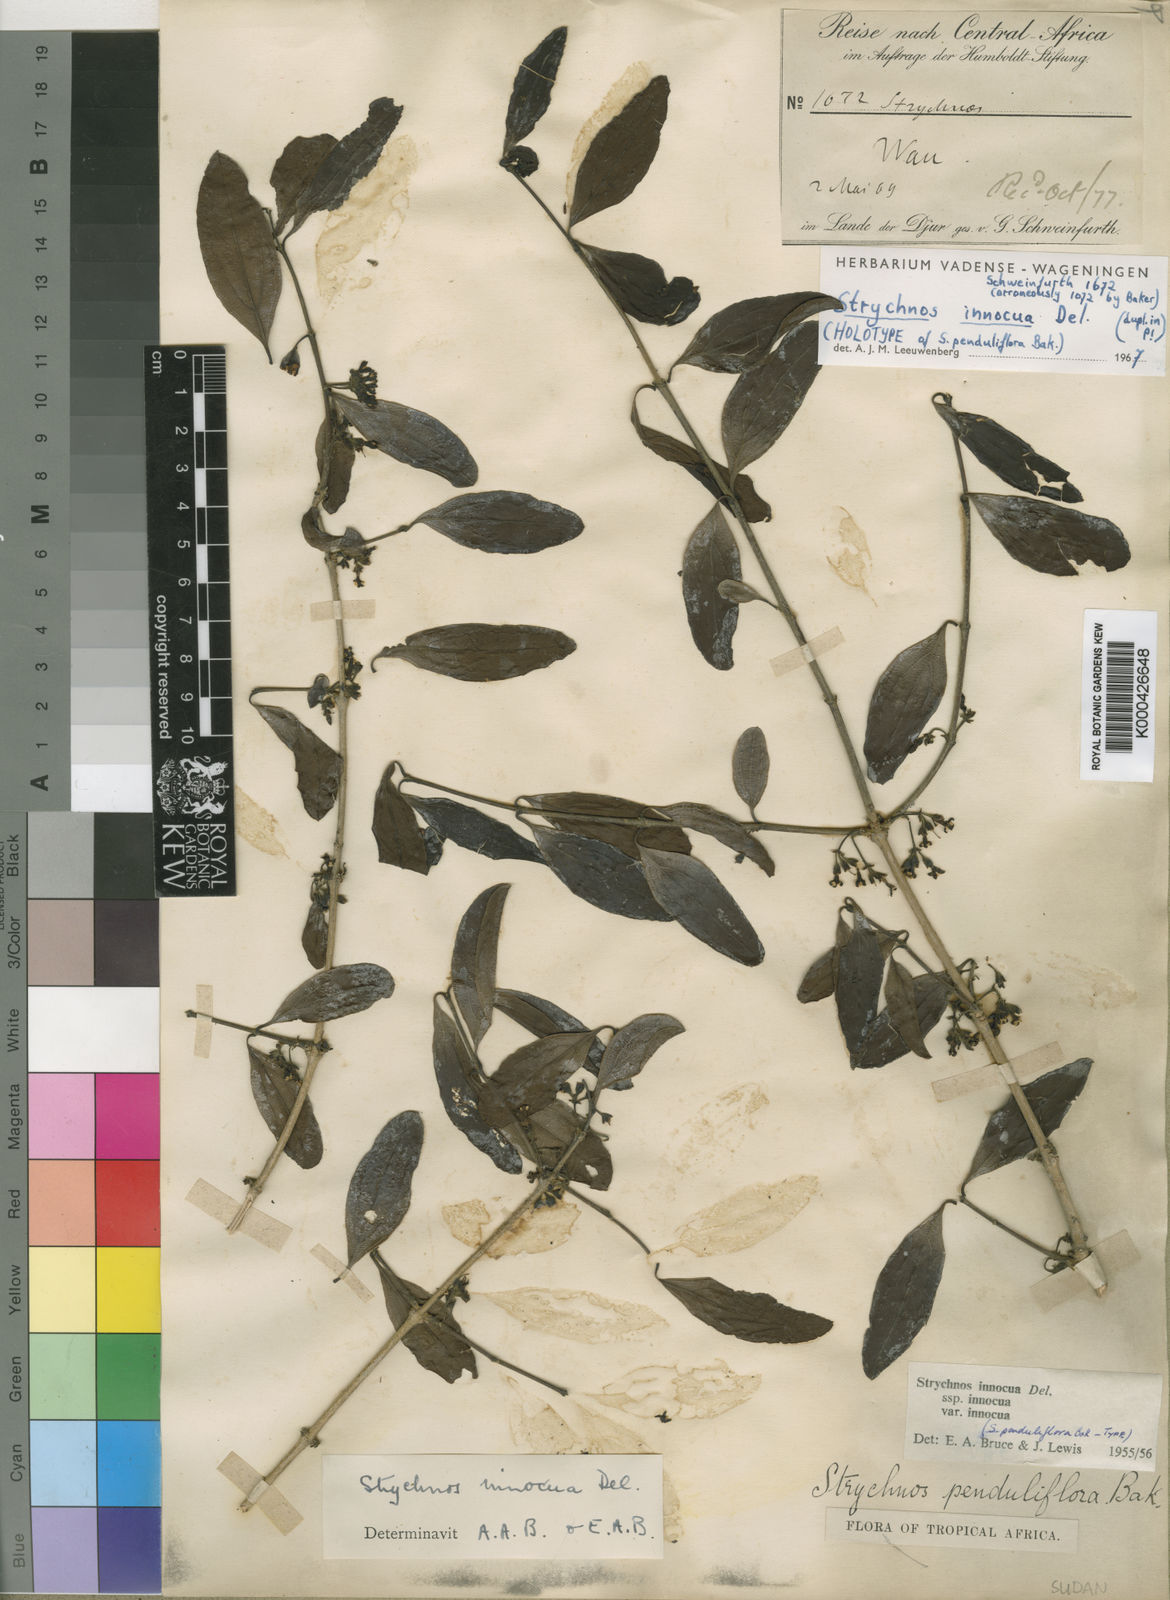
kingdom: Plantae
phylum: Tracheophyta
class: Magnoliopsida
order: Gentianales
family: Loganiaceae
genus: Strychnos
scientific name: Strychnos innocua
